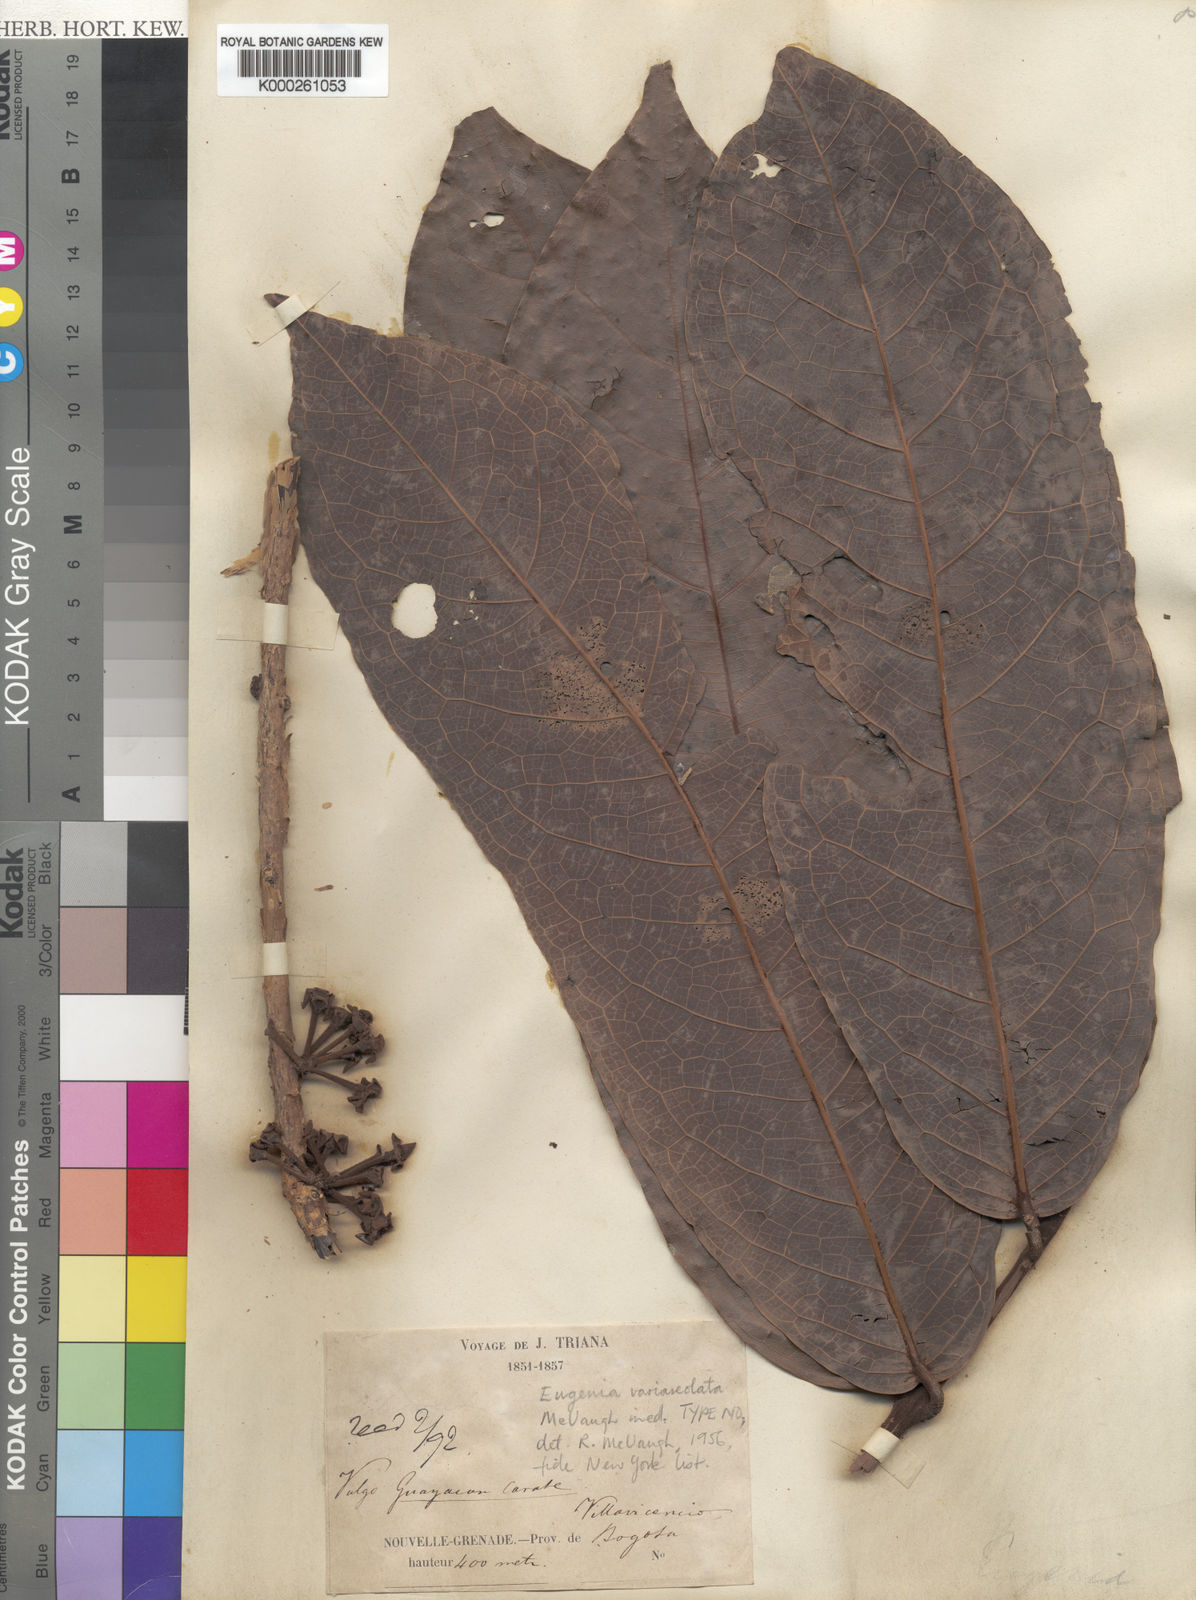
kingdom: Plantae
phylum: Tracheophyta
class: Magnoliopsida
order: Myrtales
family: Myrtaceae
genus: Eugenia
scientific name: Eugenia variareolata
